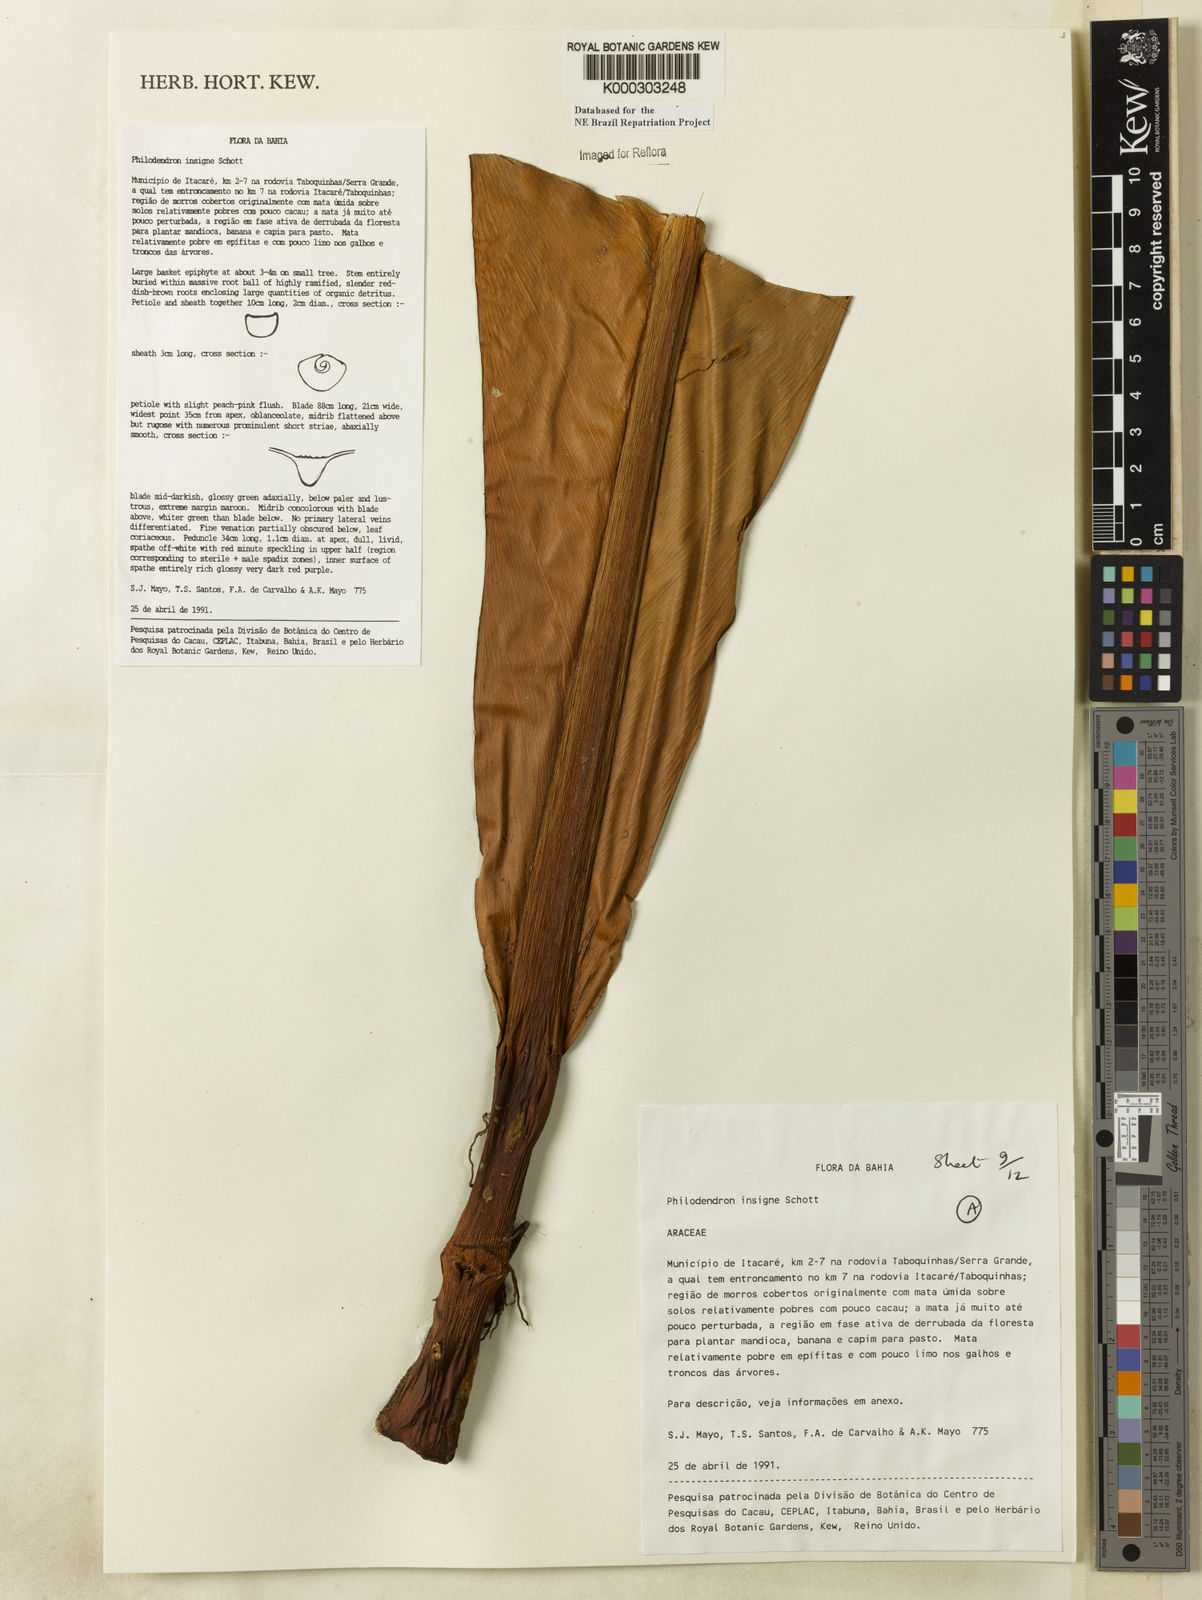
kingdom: Plantae
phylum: Tracheophyta
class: Liliopsida
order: Alismatales
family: Araceae
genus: Philodendron
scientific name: Philodendron insigne
